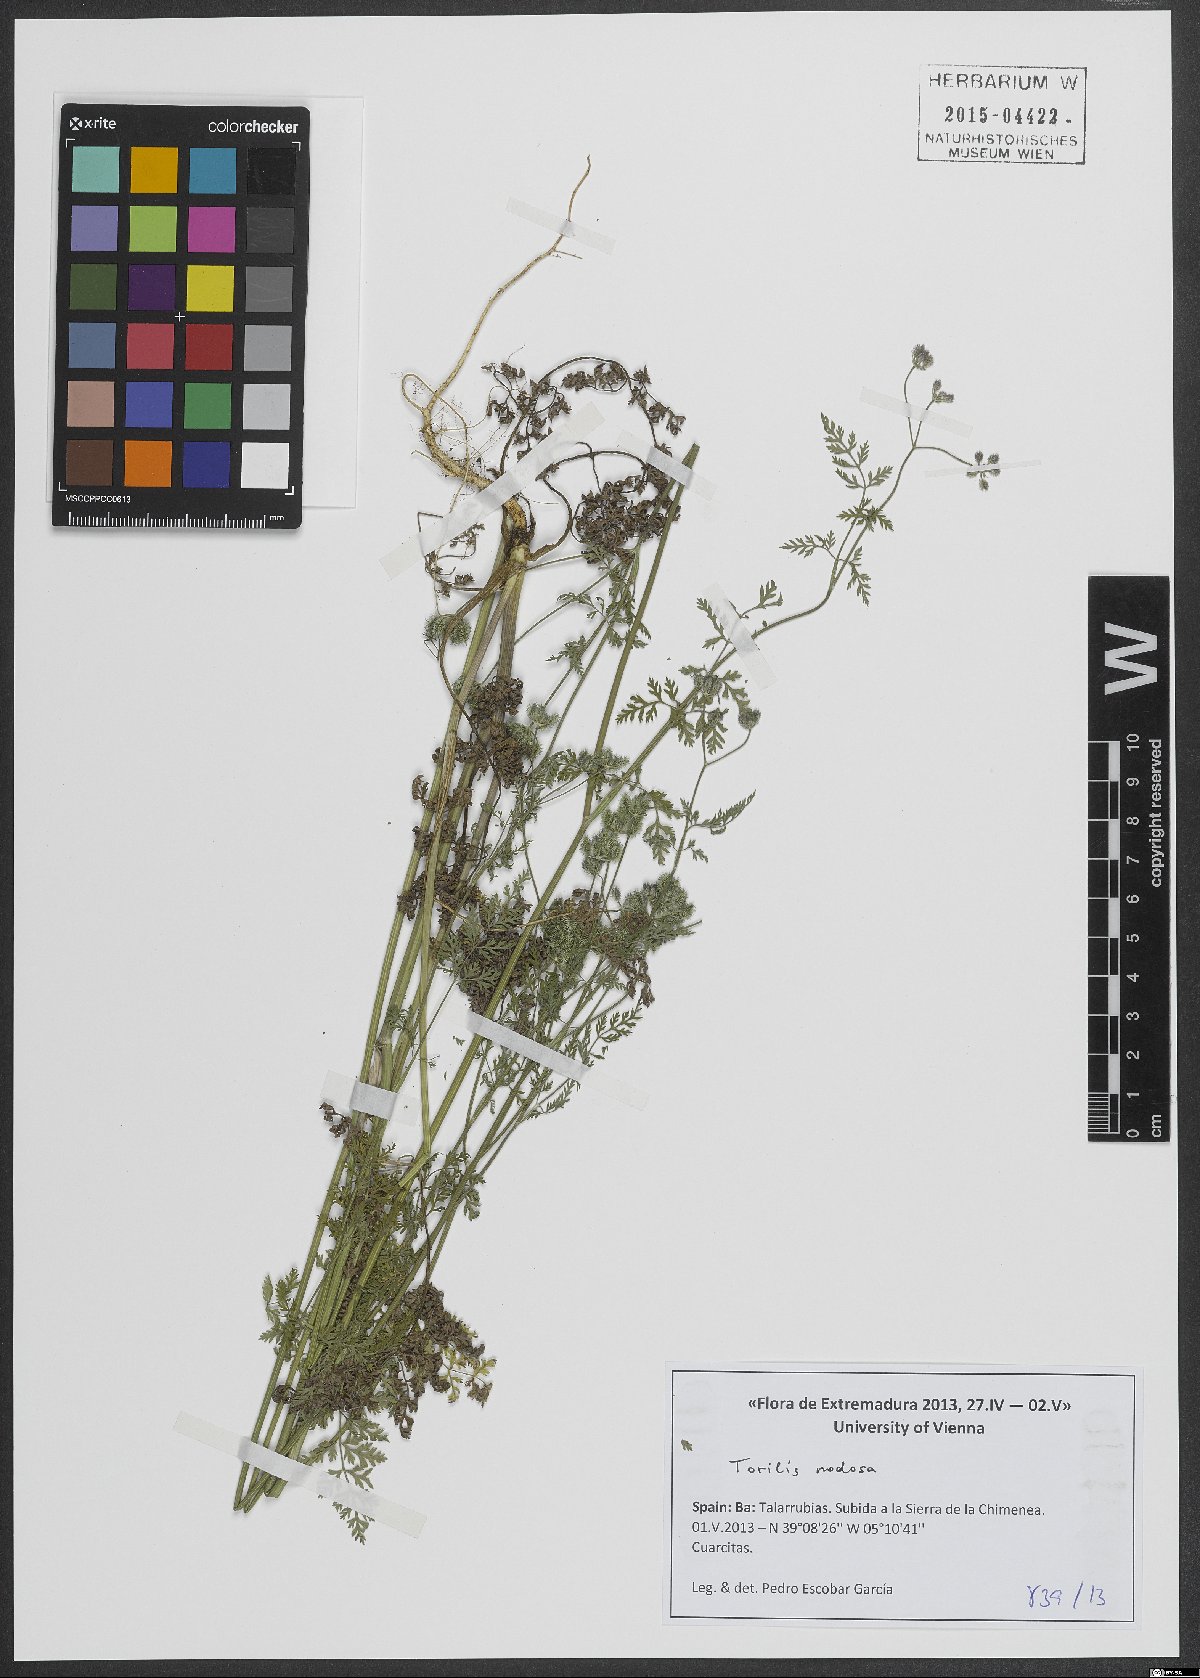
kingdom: Plantae
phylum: Tracheophyta
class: Magnoliopsida
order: Apiales
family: Apiaceae
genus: Torilis
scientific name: Torilis nodosa
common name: Knotted hedge-parsley
